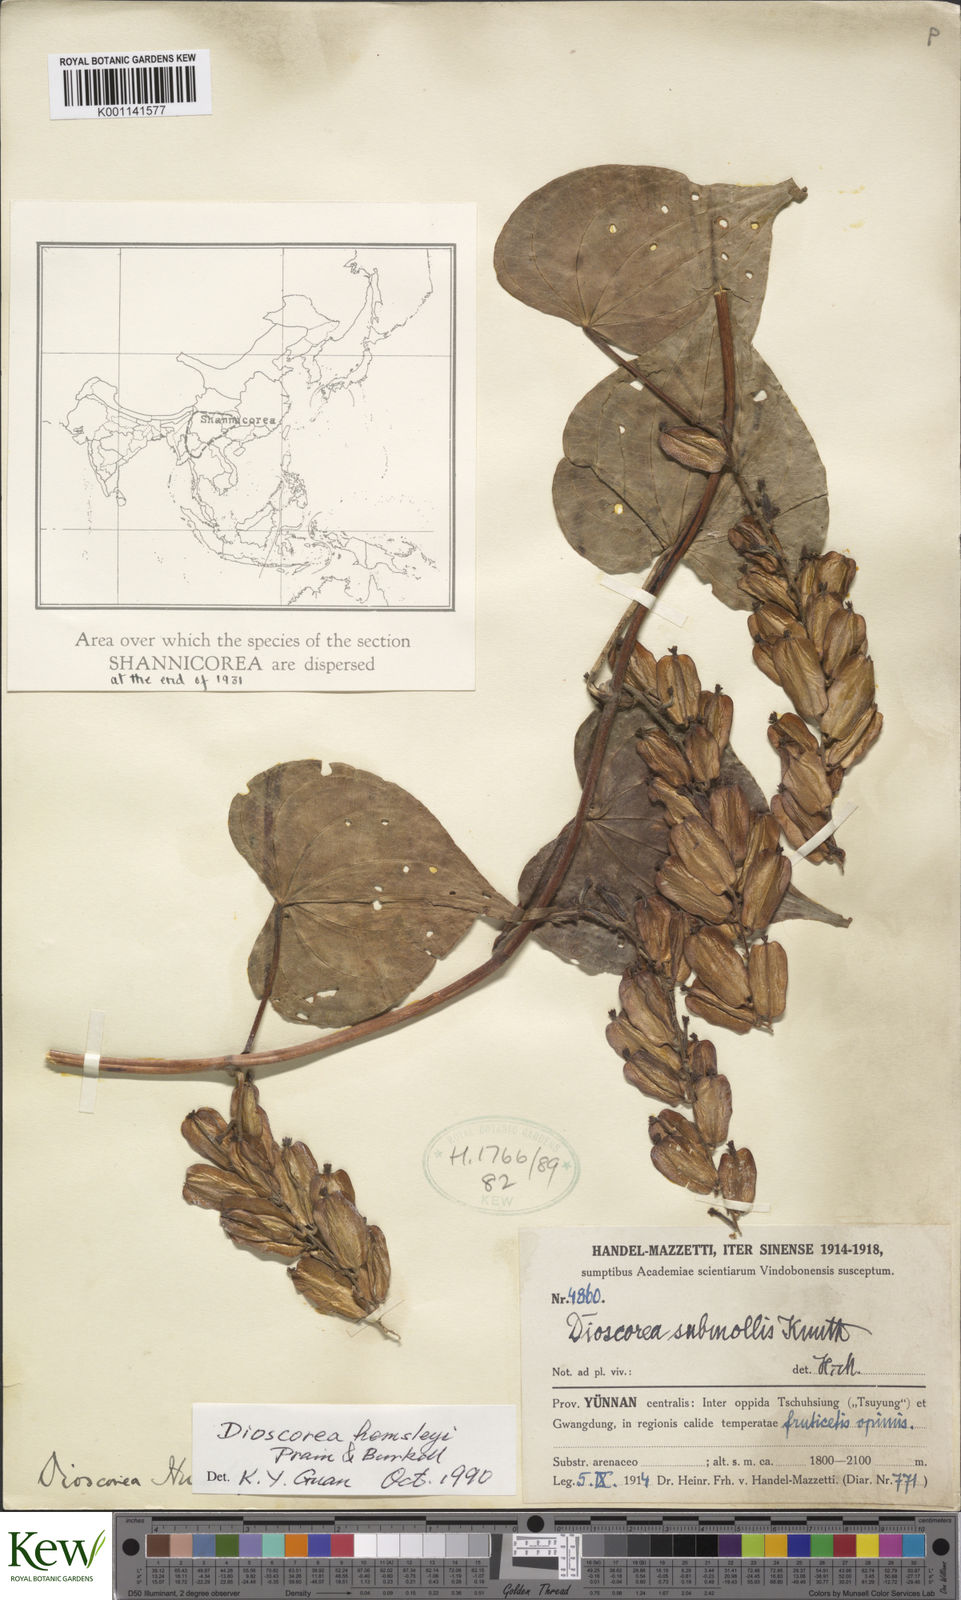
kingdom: Plantae
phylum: Tracheophyta
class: Liliopsida
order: Dioscoreales
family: Dioscoreaceae
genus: Dioscorea
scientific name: Dioscorea hemsleyi
